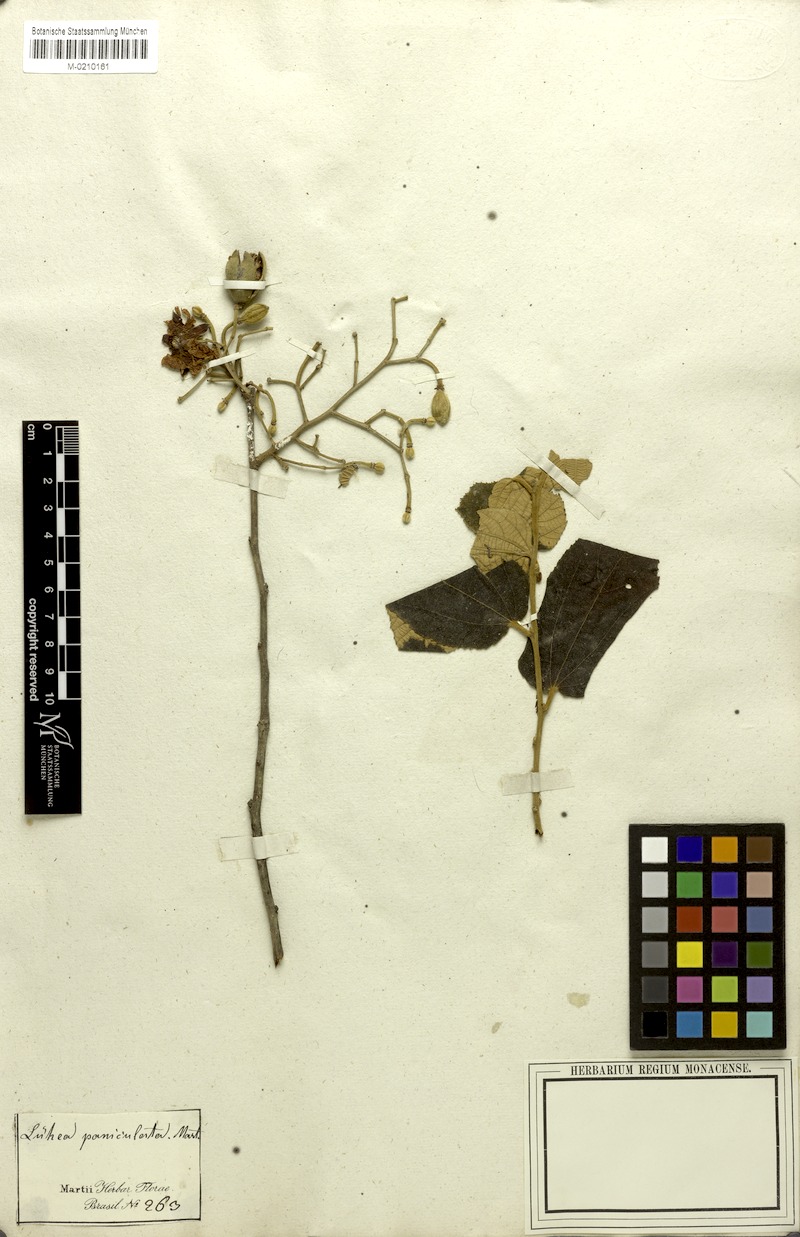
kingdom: Plantae
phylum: Tracheophyta
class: Magnoliopsida
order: Malvales
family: Malvaceae
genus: Luehea
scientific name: Luehea paniculata
